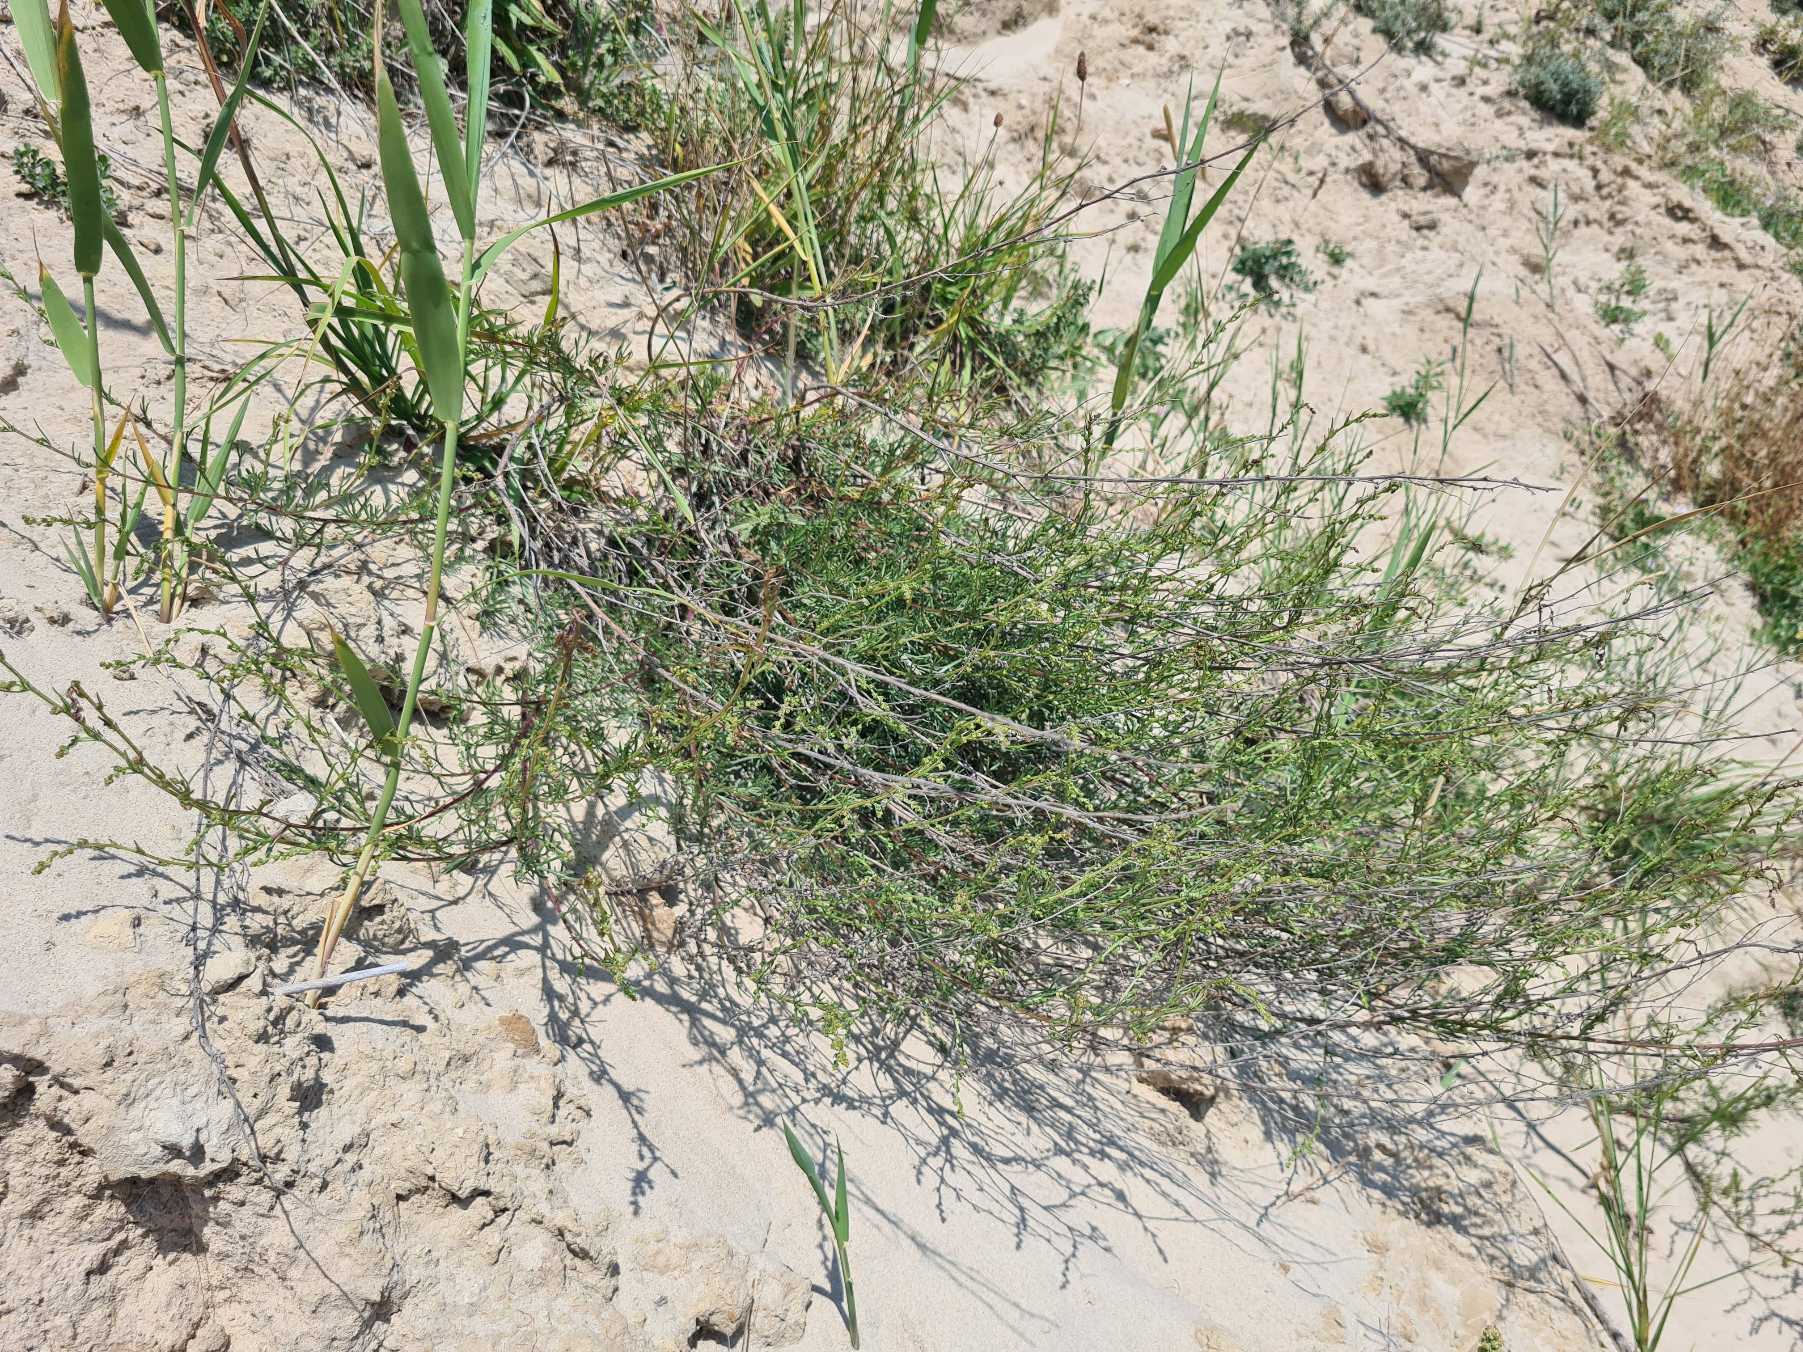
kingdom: Plantae
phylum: Tracheophyta
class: Magnoliopsida
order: Asterales
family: Asteraceae
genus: Artemisia
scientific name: Artemisia campestris
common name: Mark-bynke
